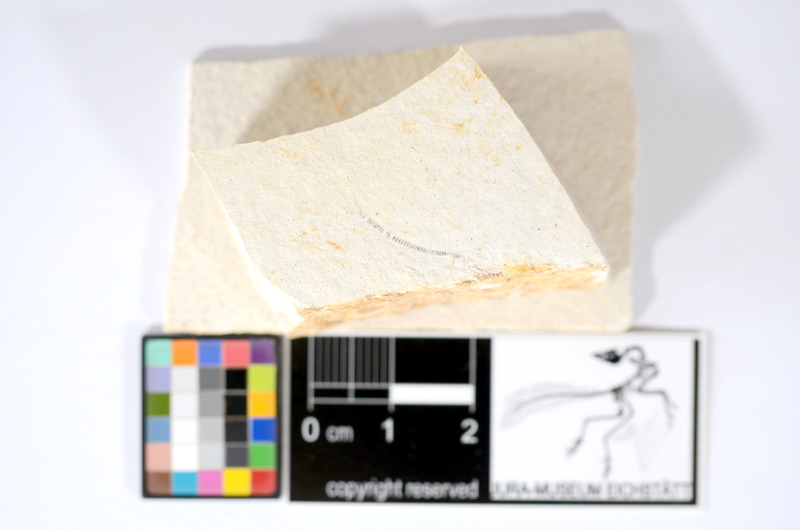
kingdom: Animalia
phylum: Chordata
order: Salmoniformes
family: Orthogonikleithridae
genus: Orthogonikleithrus
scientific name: Orthogonikleithrus hoelli
